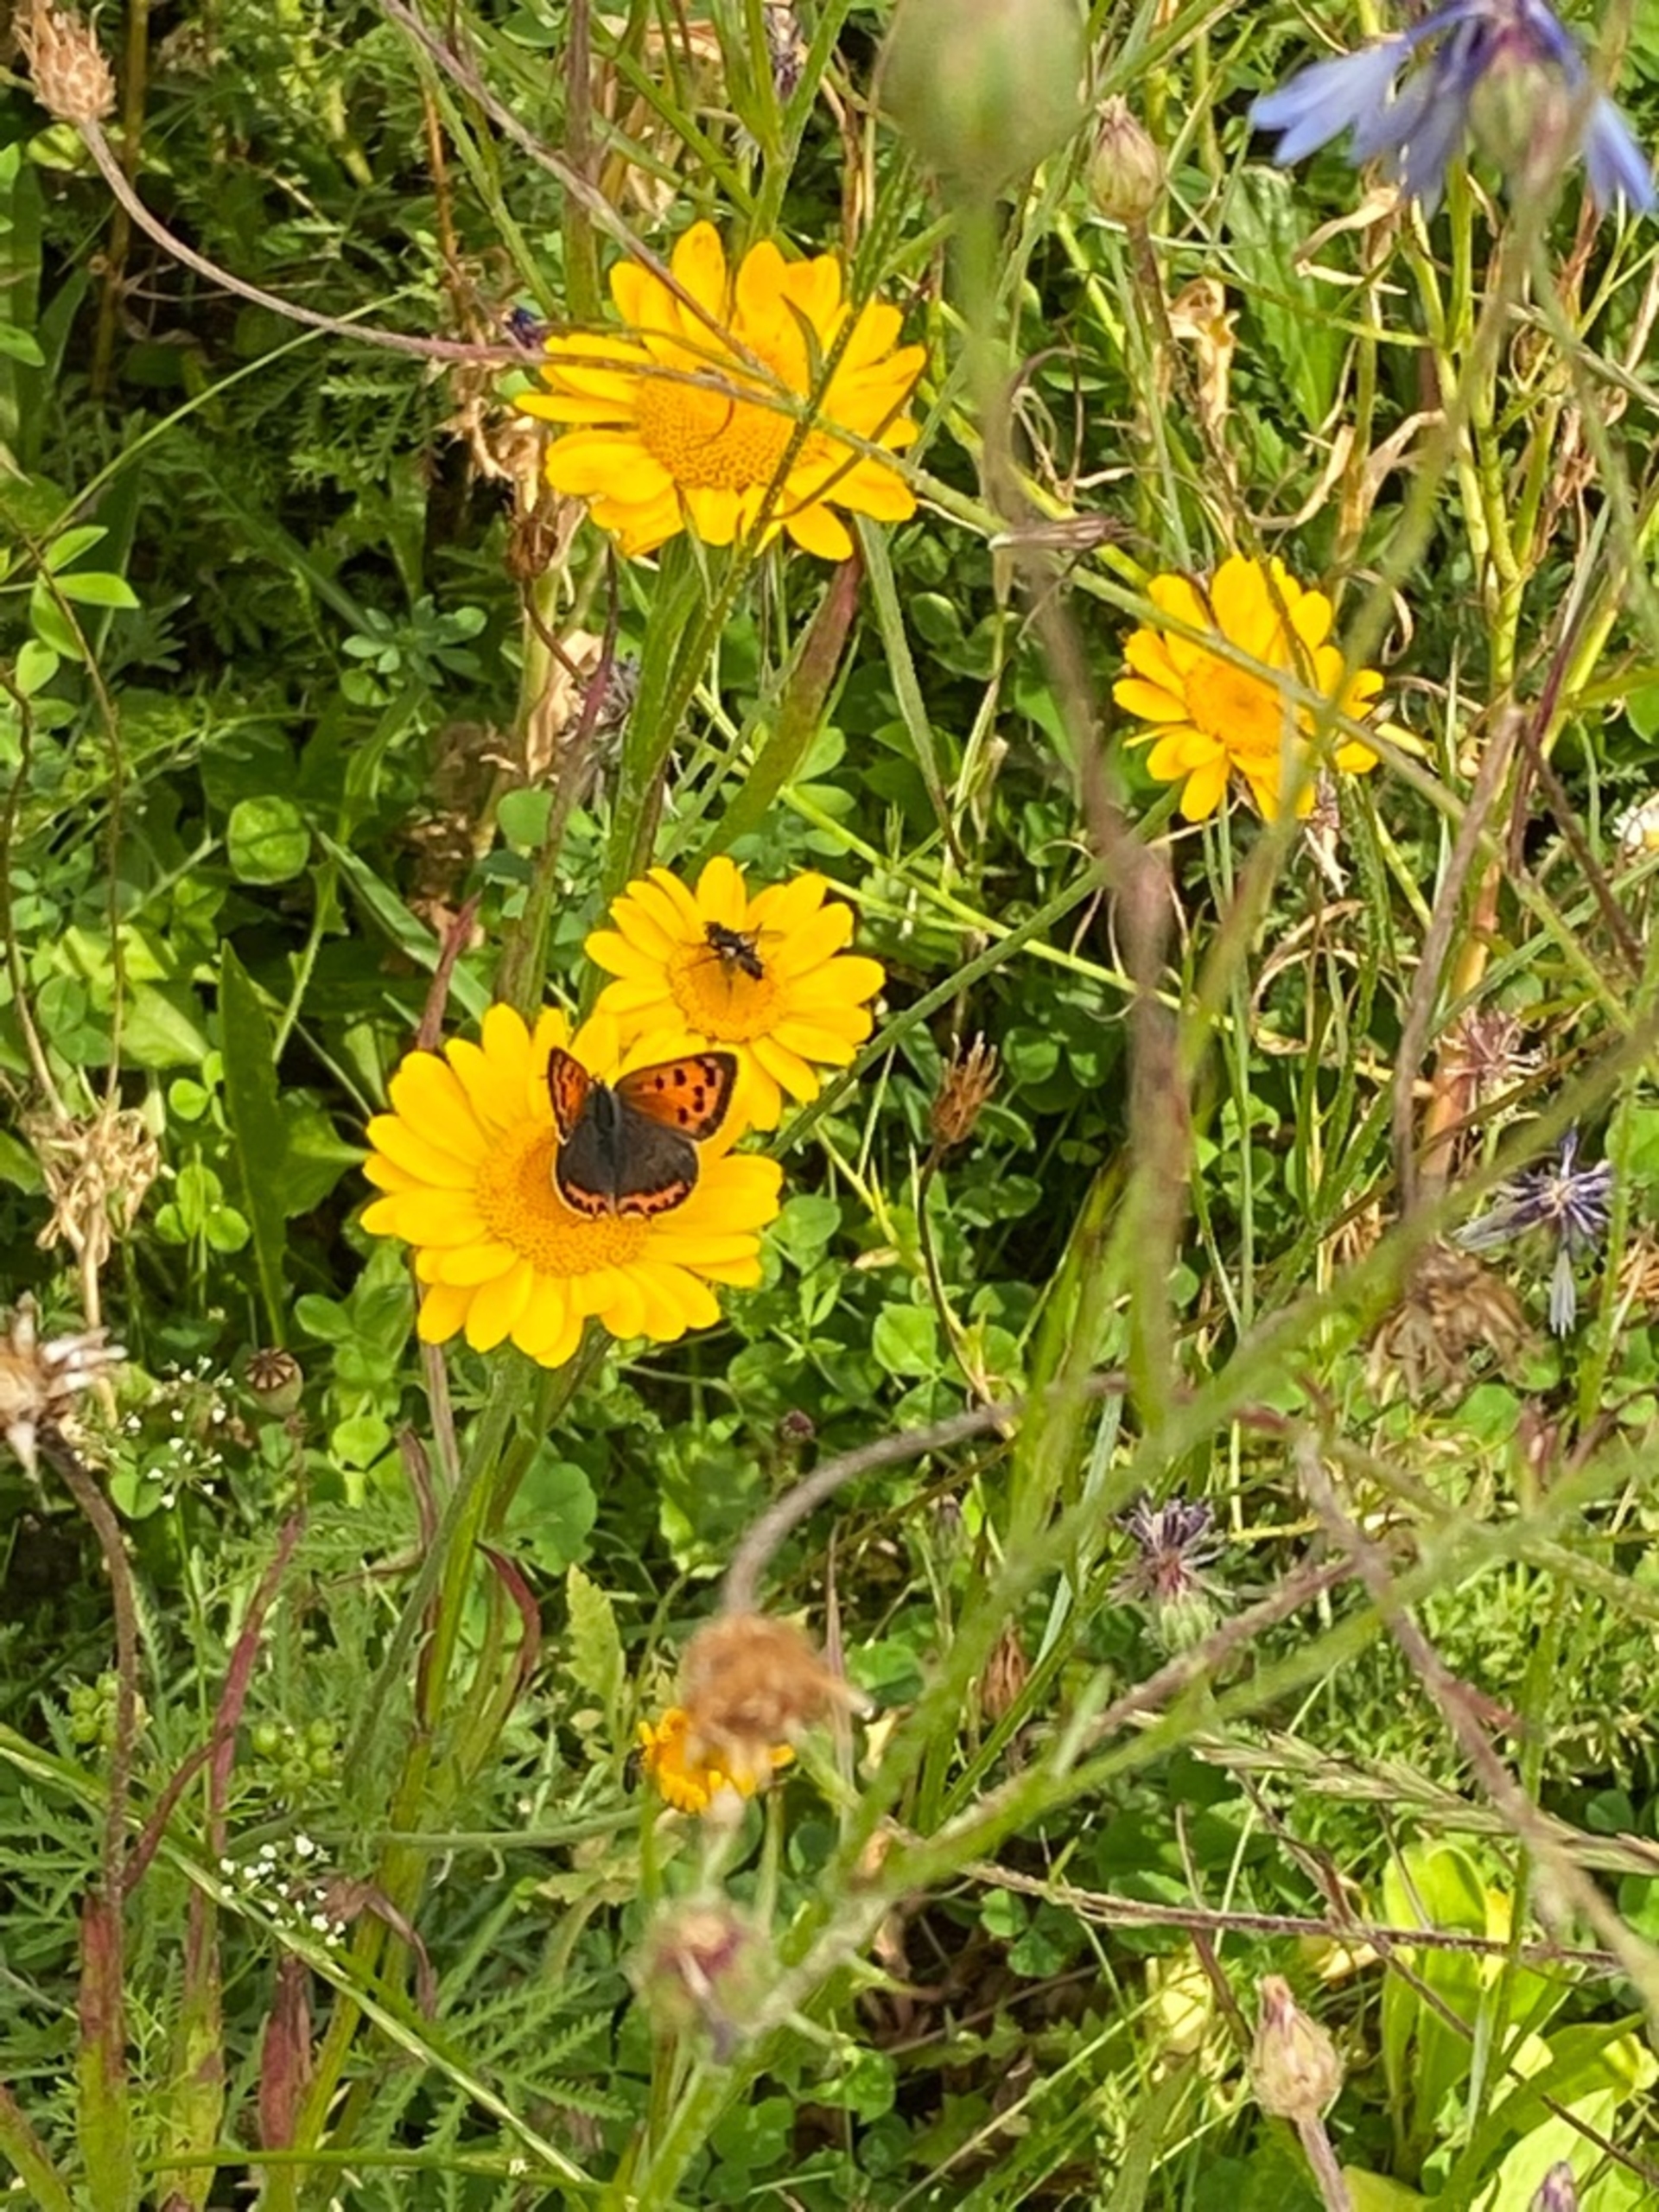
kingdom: Animalia
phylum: Arthropoda
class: Insecta
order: Lepidoptera
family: Lycaenidae
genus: Lycaena
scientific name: Lycaena phlaeas
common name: Lille ildfugl
